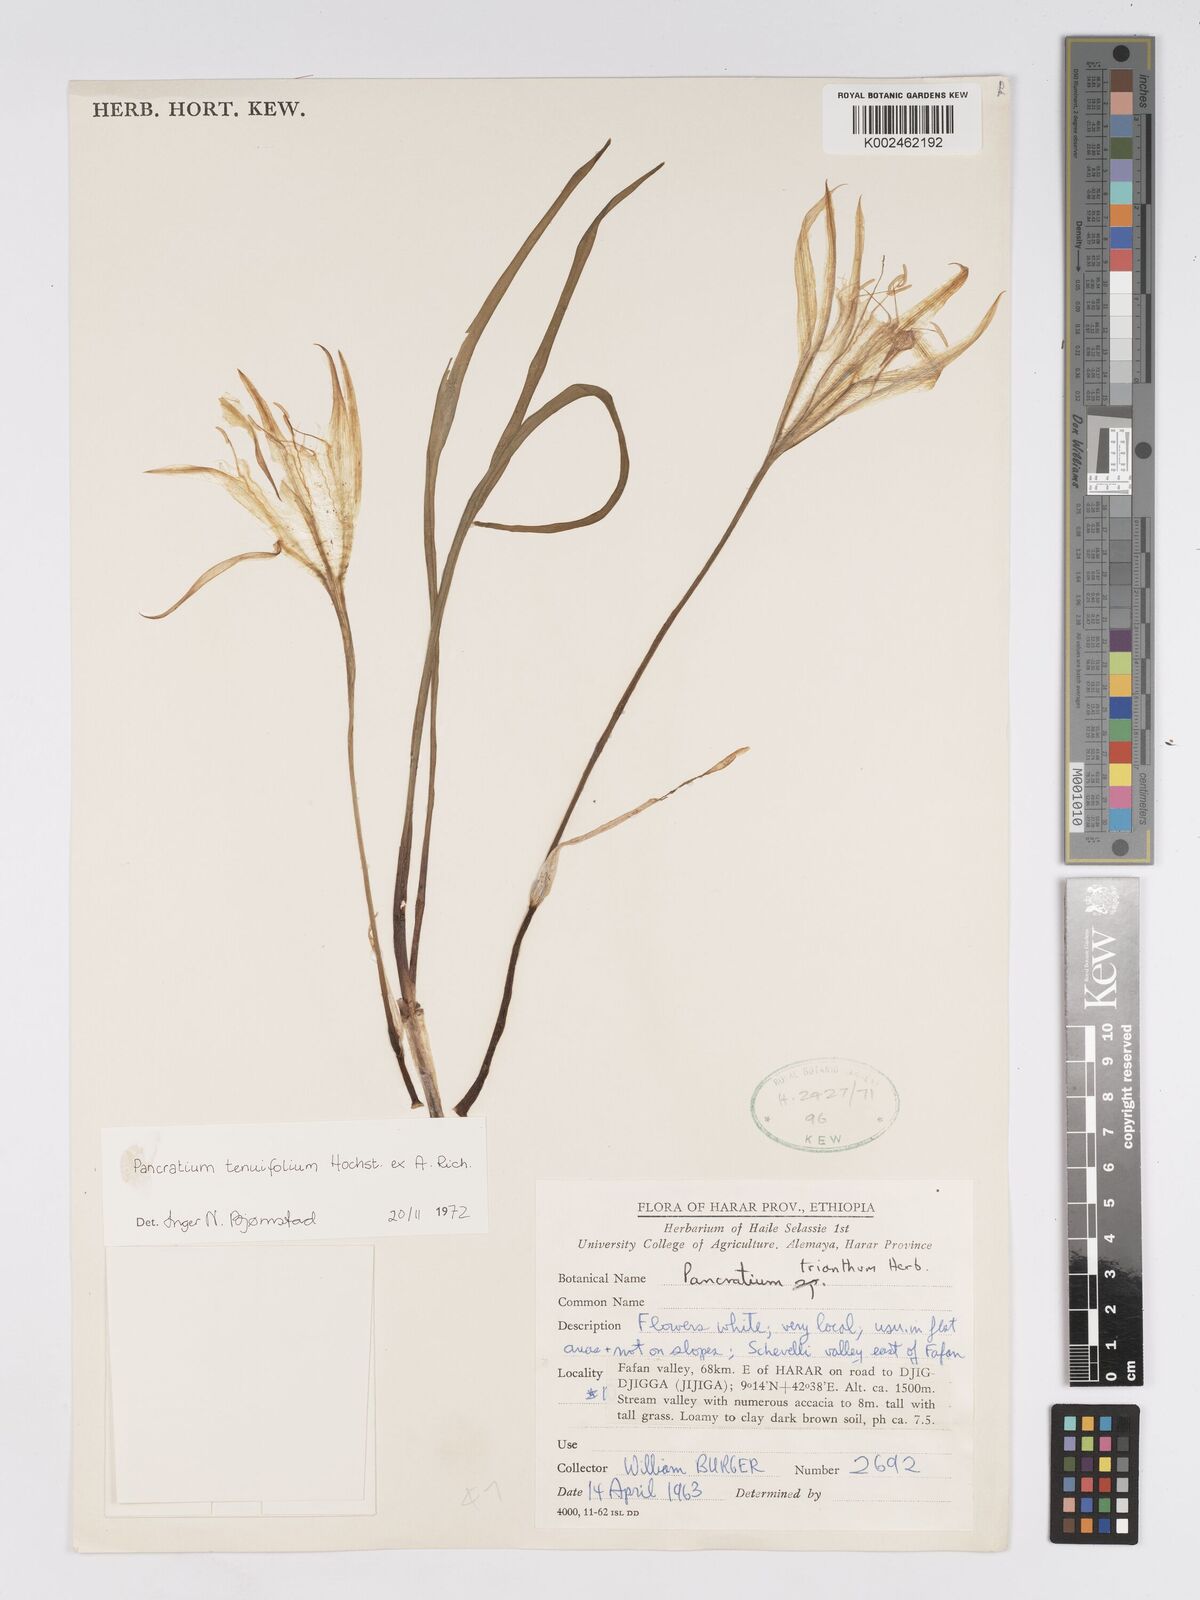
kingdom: Plantae
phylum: Tracheophyta
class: Liliopsida
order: Asparagales
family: Amaryllidaceae
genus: Pancratium
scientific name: Pancratium tenuifolium
